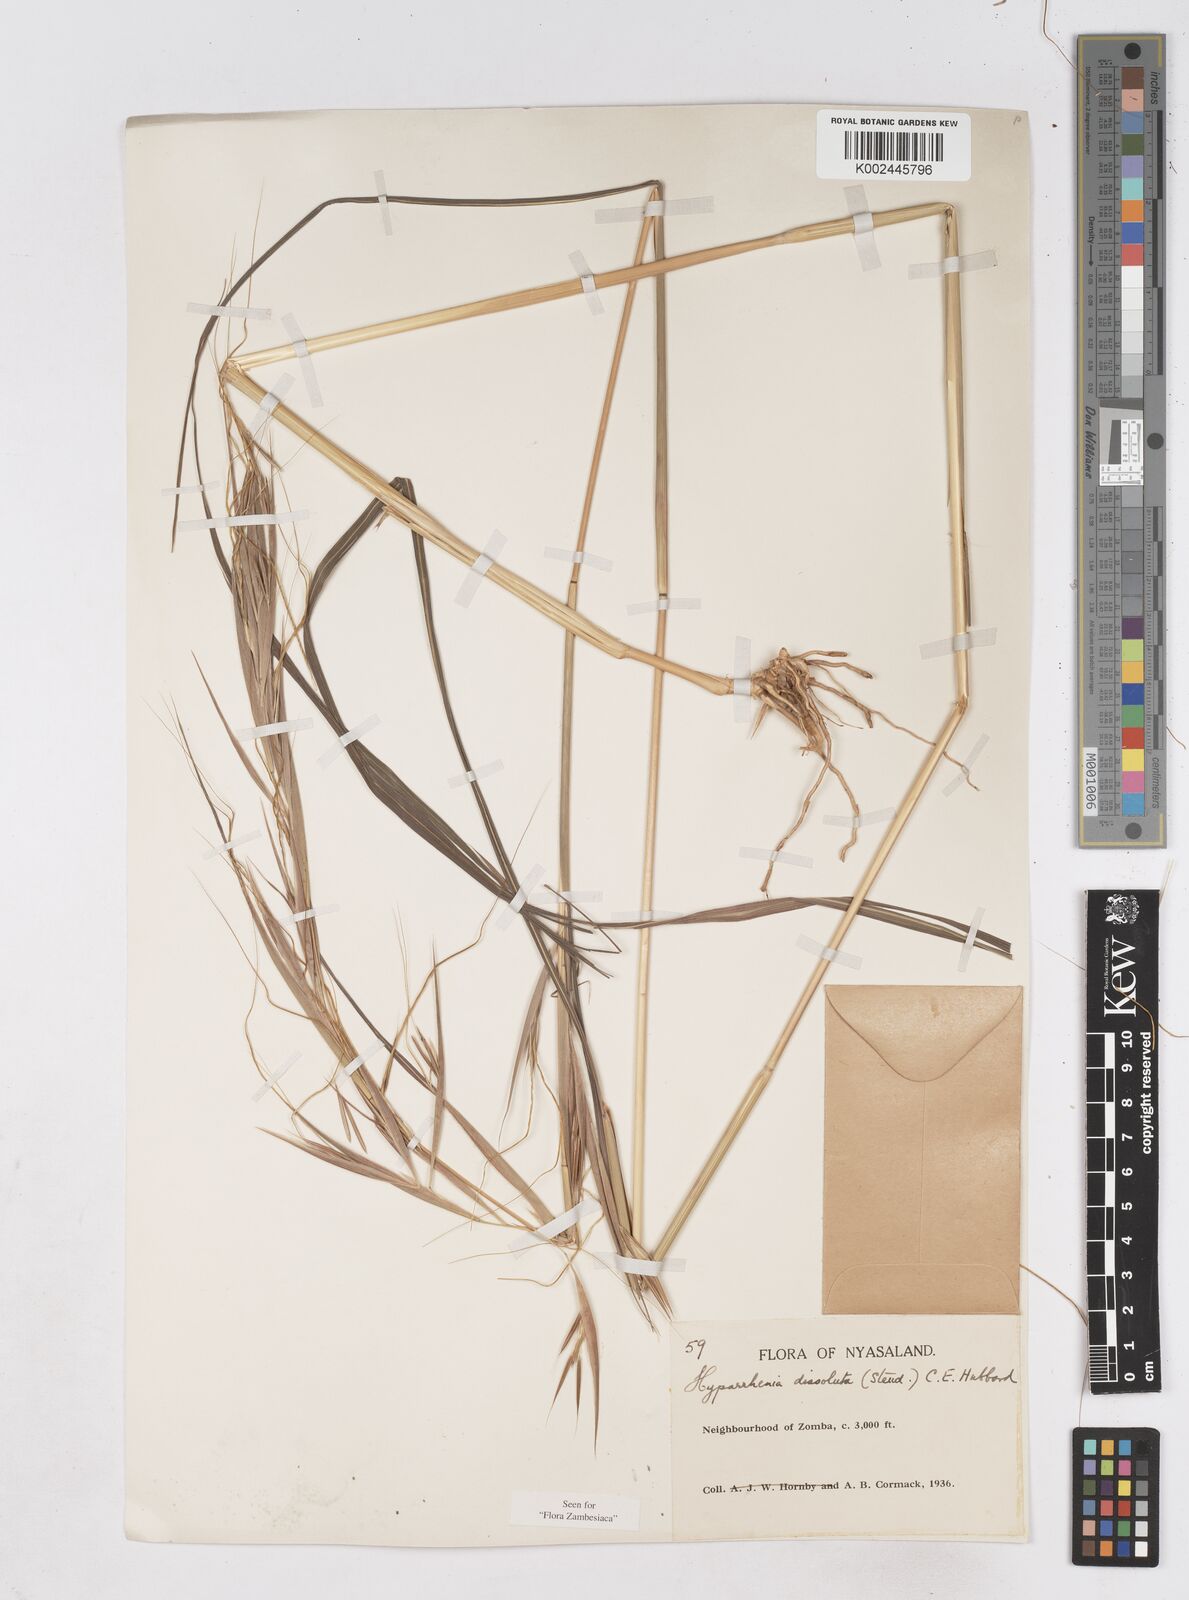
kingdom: Plantae
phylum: Tracheophyta
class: Liliopsida
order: Poales
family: Poaceae
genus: Hyperthelia
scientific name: Hyperthelia dissoluta
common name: Yellow thatching grass
